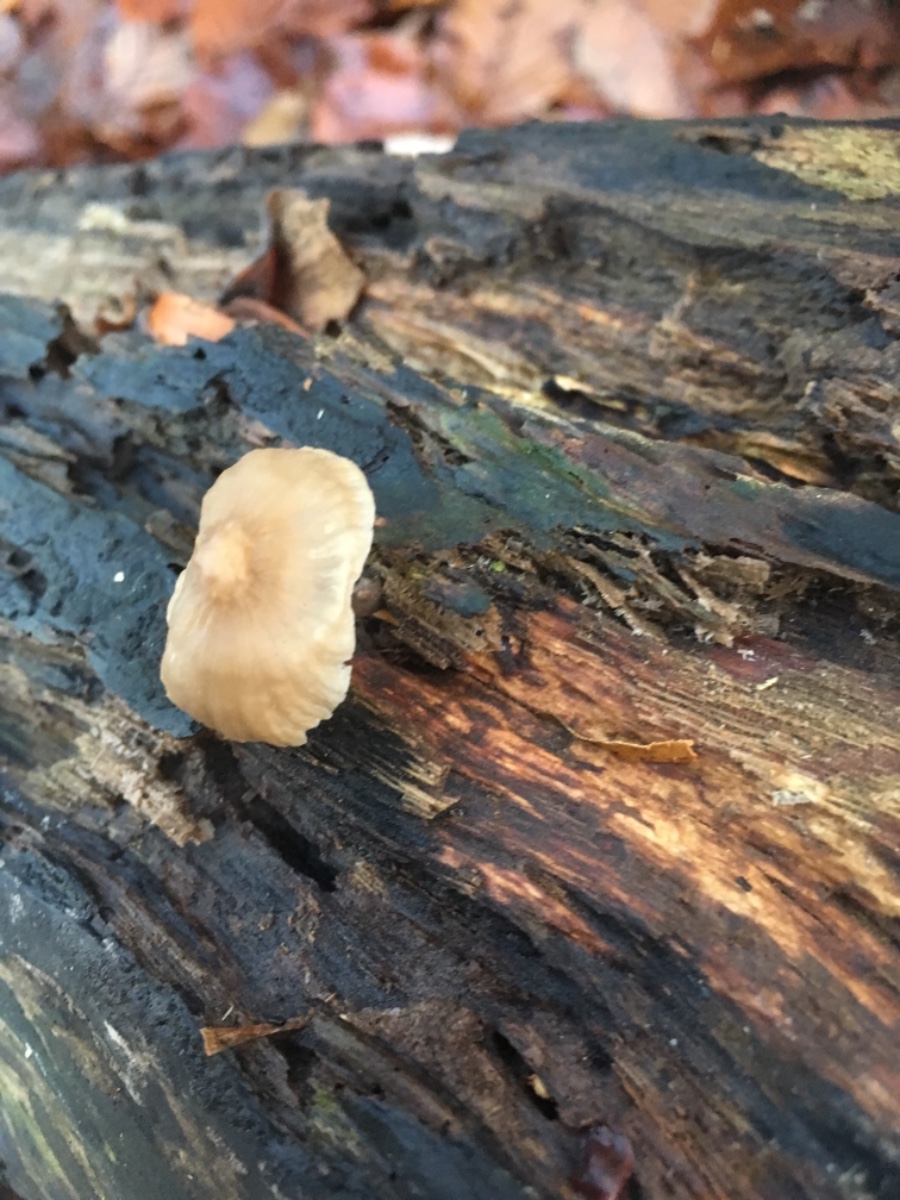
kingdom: Fungi
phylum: Basidiomycota
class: Agaricomycetes
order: Agaricales
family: Mycenaceae
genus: Mycena
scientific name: Mycena galericulata
